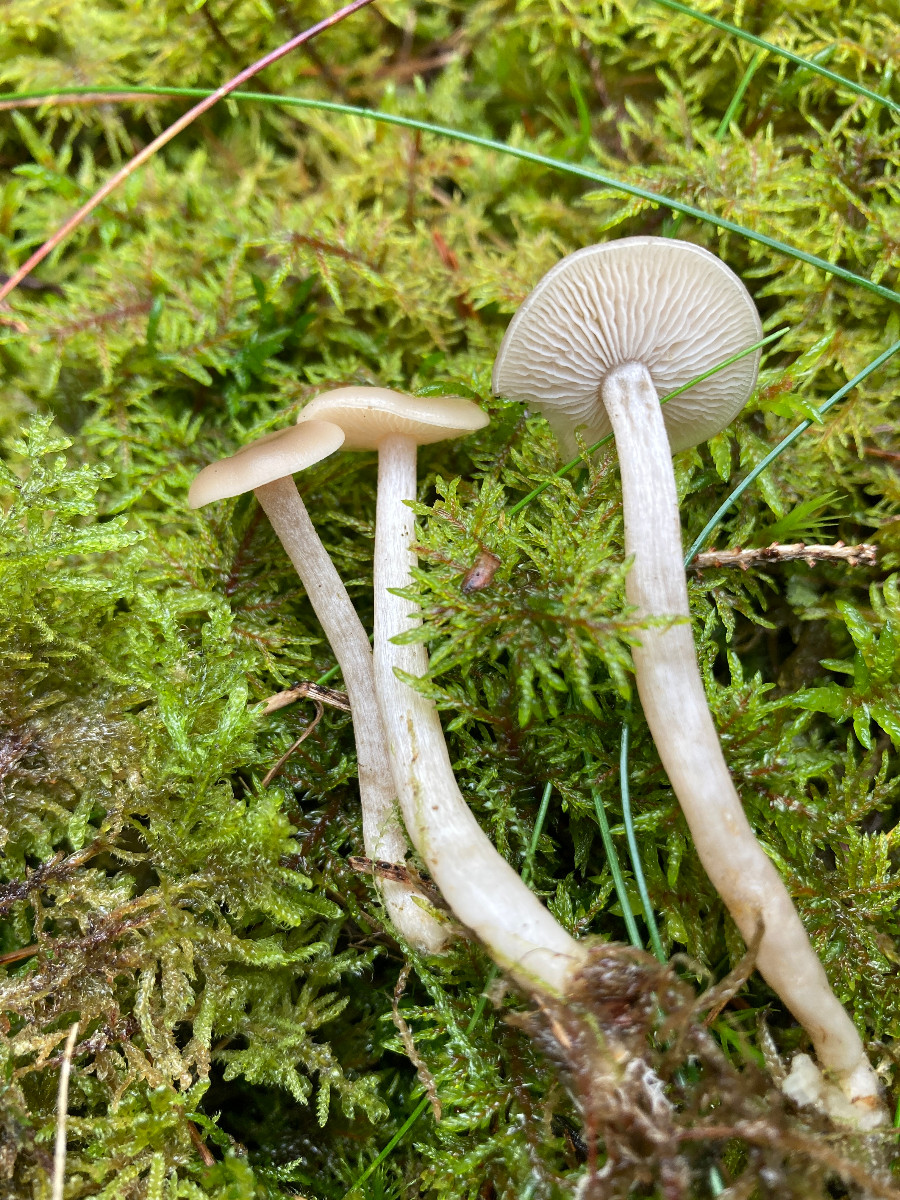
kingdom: Fungi
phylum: Basidiomycota
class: Agaricomycetes
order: Agaricales
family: Tricholomataceae
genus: Clitocybe
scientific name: Clitocybe
